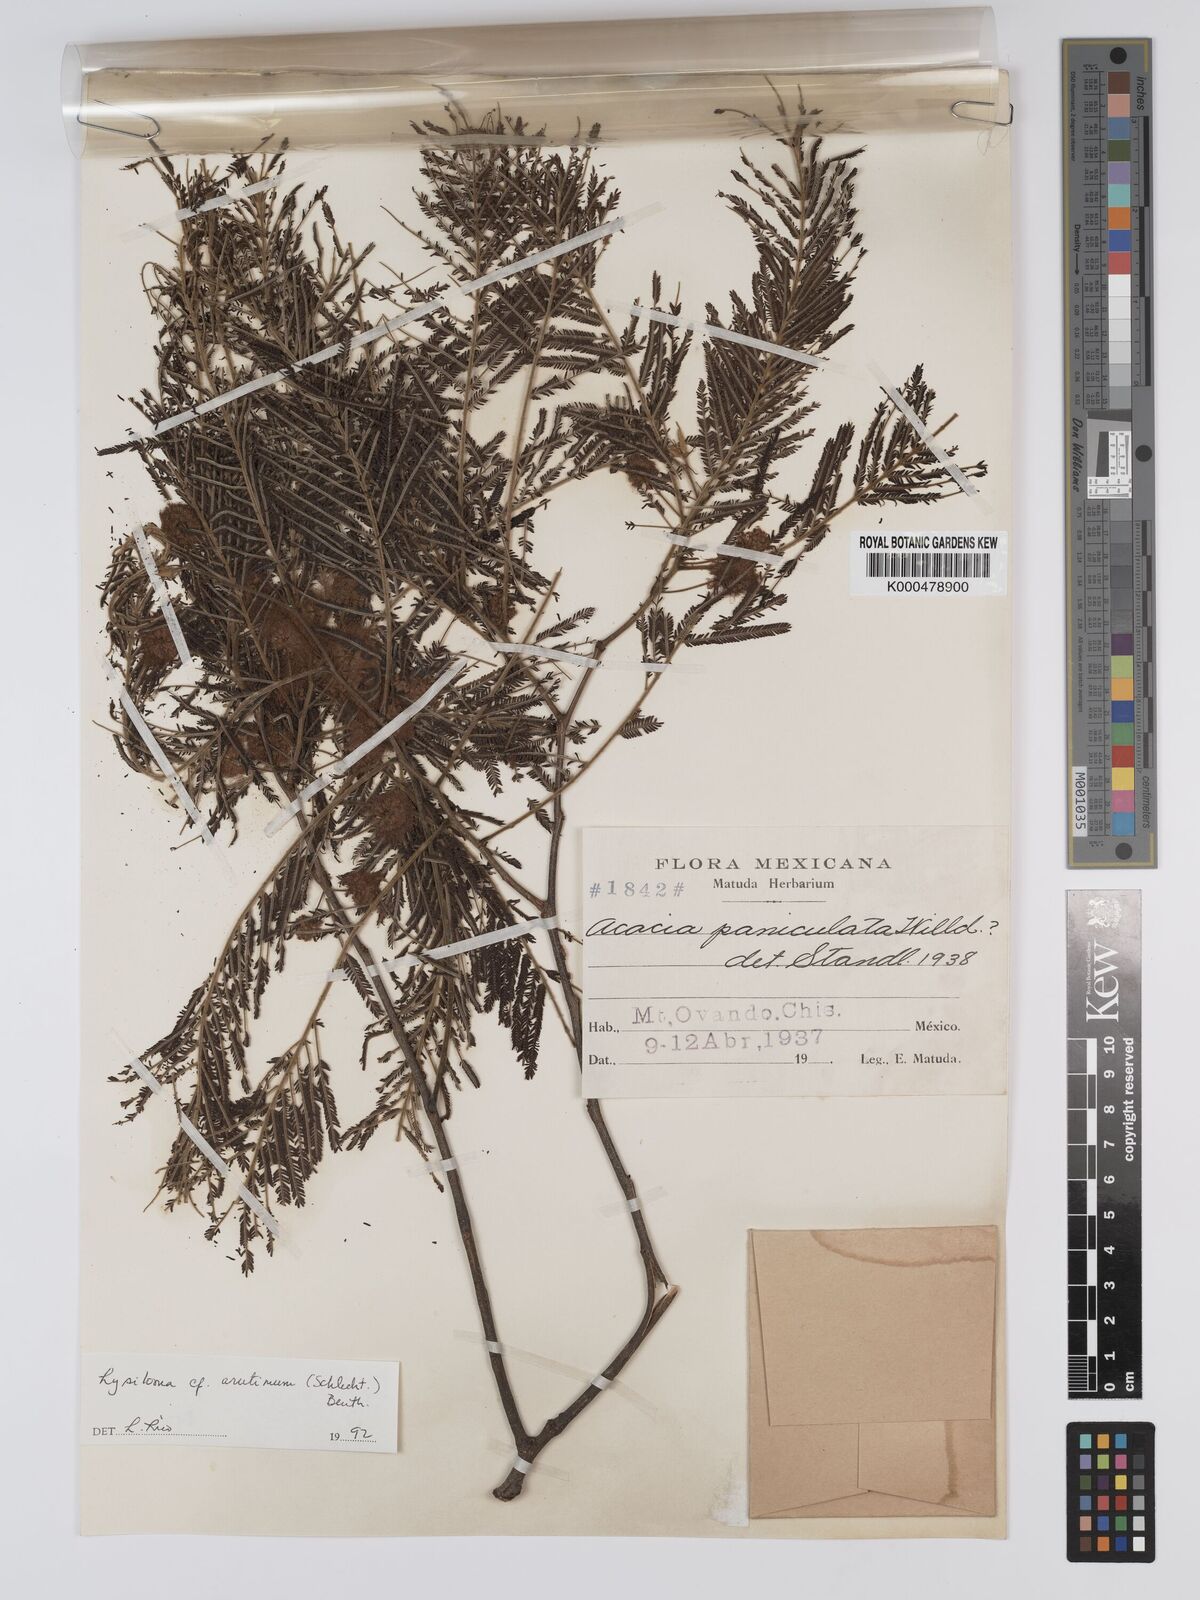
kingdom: Plantae
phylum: Tracheophyta
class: Magnoliopsida
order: Fabales
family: Fabaceae
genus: Lysiloma
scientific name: Lysiloma auritum
